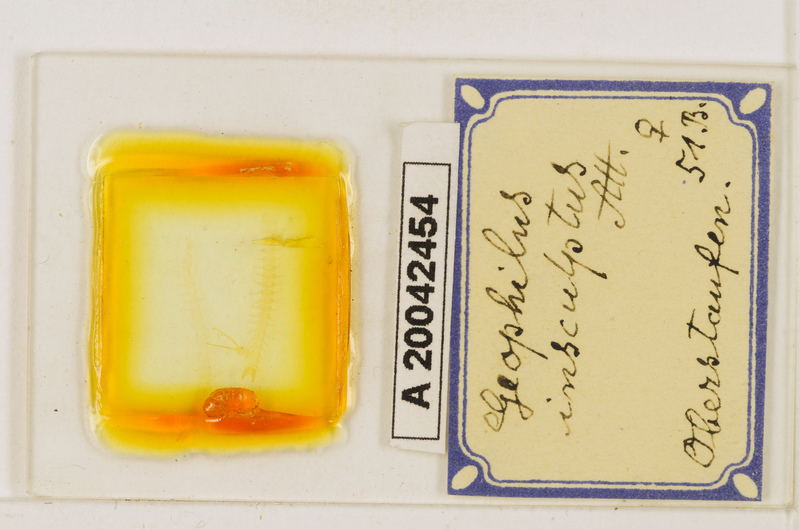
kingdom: Animalia
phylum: Arthropoda
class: Chilopoda
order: Geophilomorpha
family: Geophilidae
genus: Geophilus
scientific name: Geophilus insculptus
